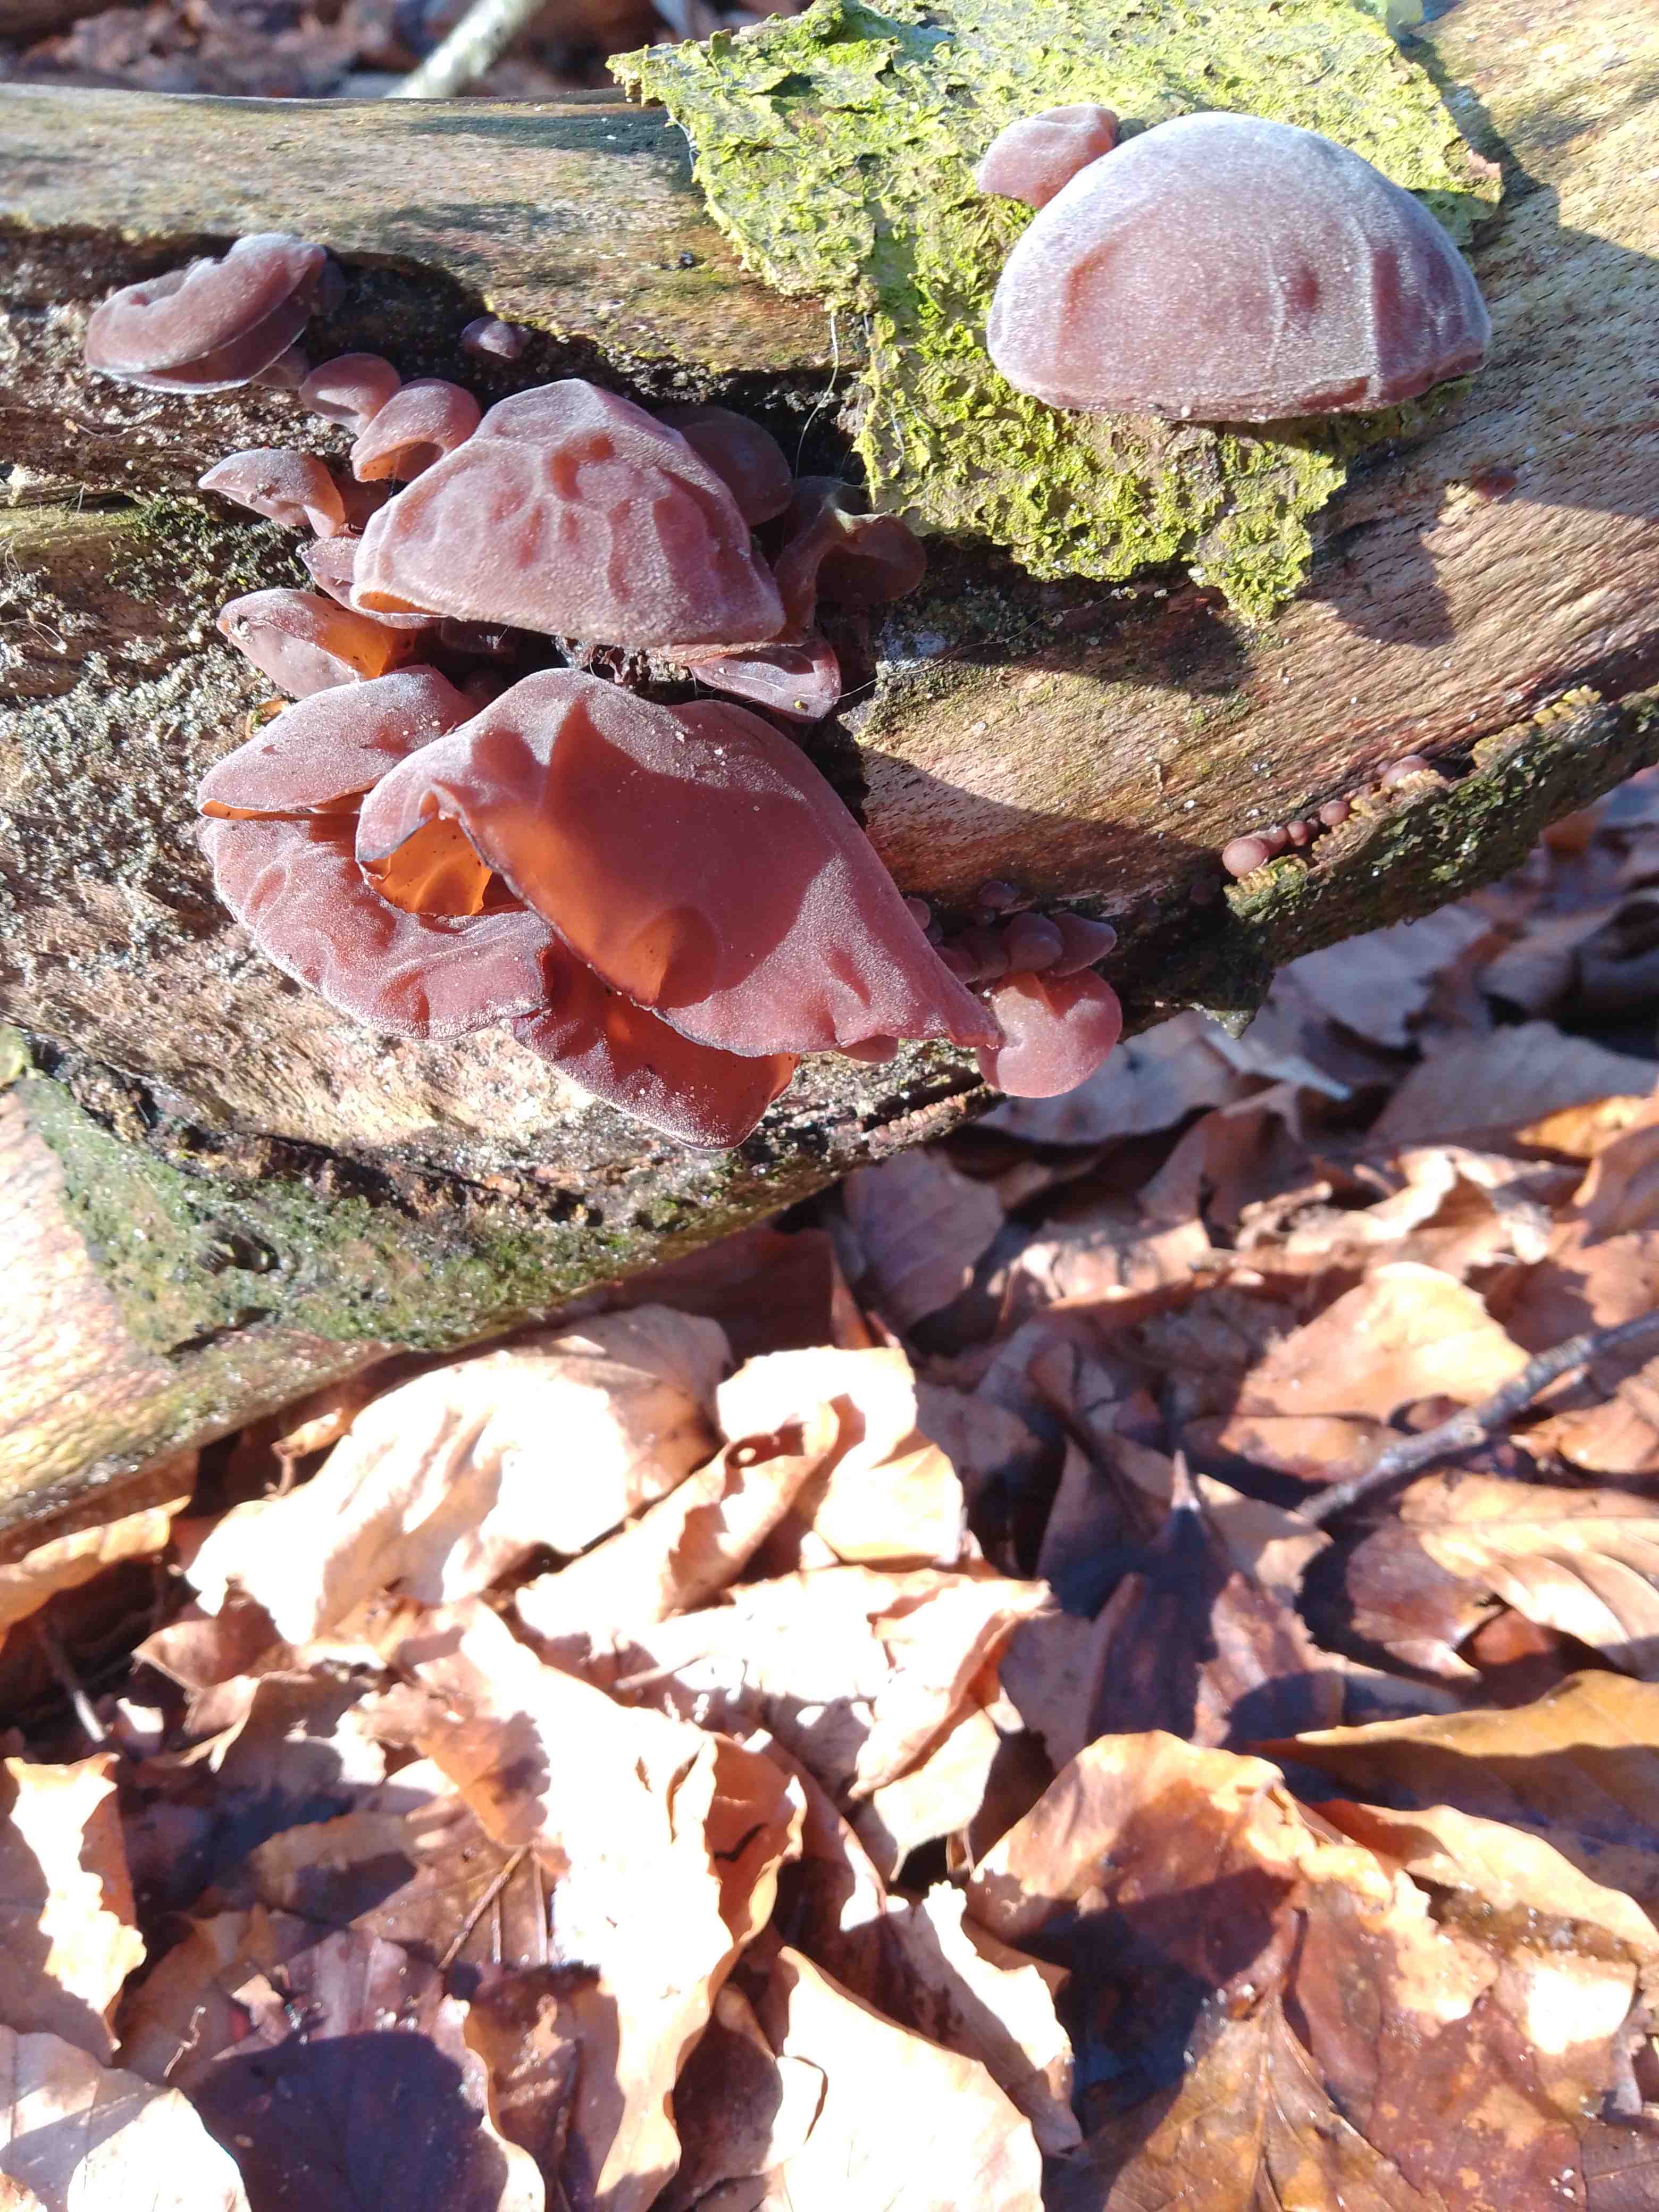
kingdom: Fungi
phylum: Basidiomycota
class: Agaricomycetes
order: Auriculariales
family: Auriculariaceae
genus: Auricularia
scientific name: Auricularia auricula-judae
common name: almindelig judasøre
